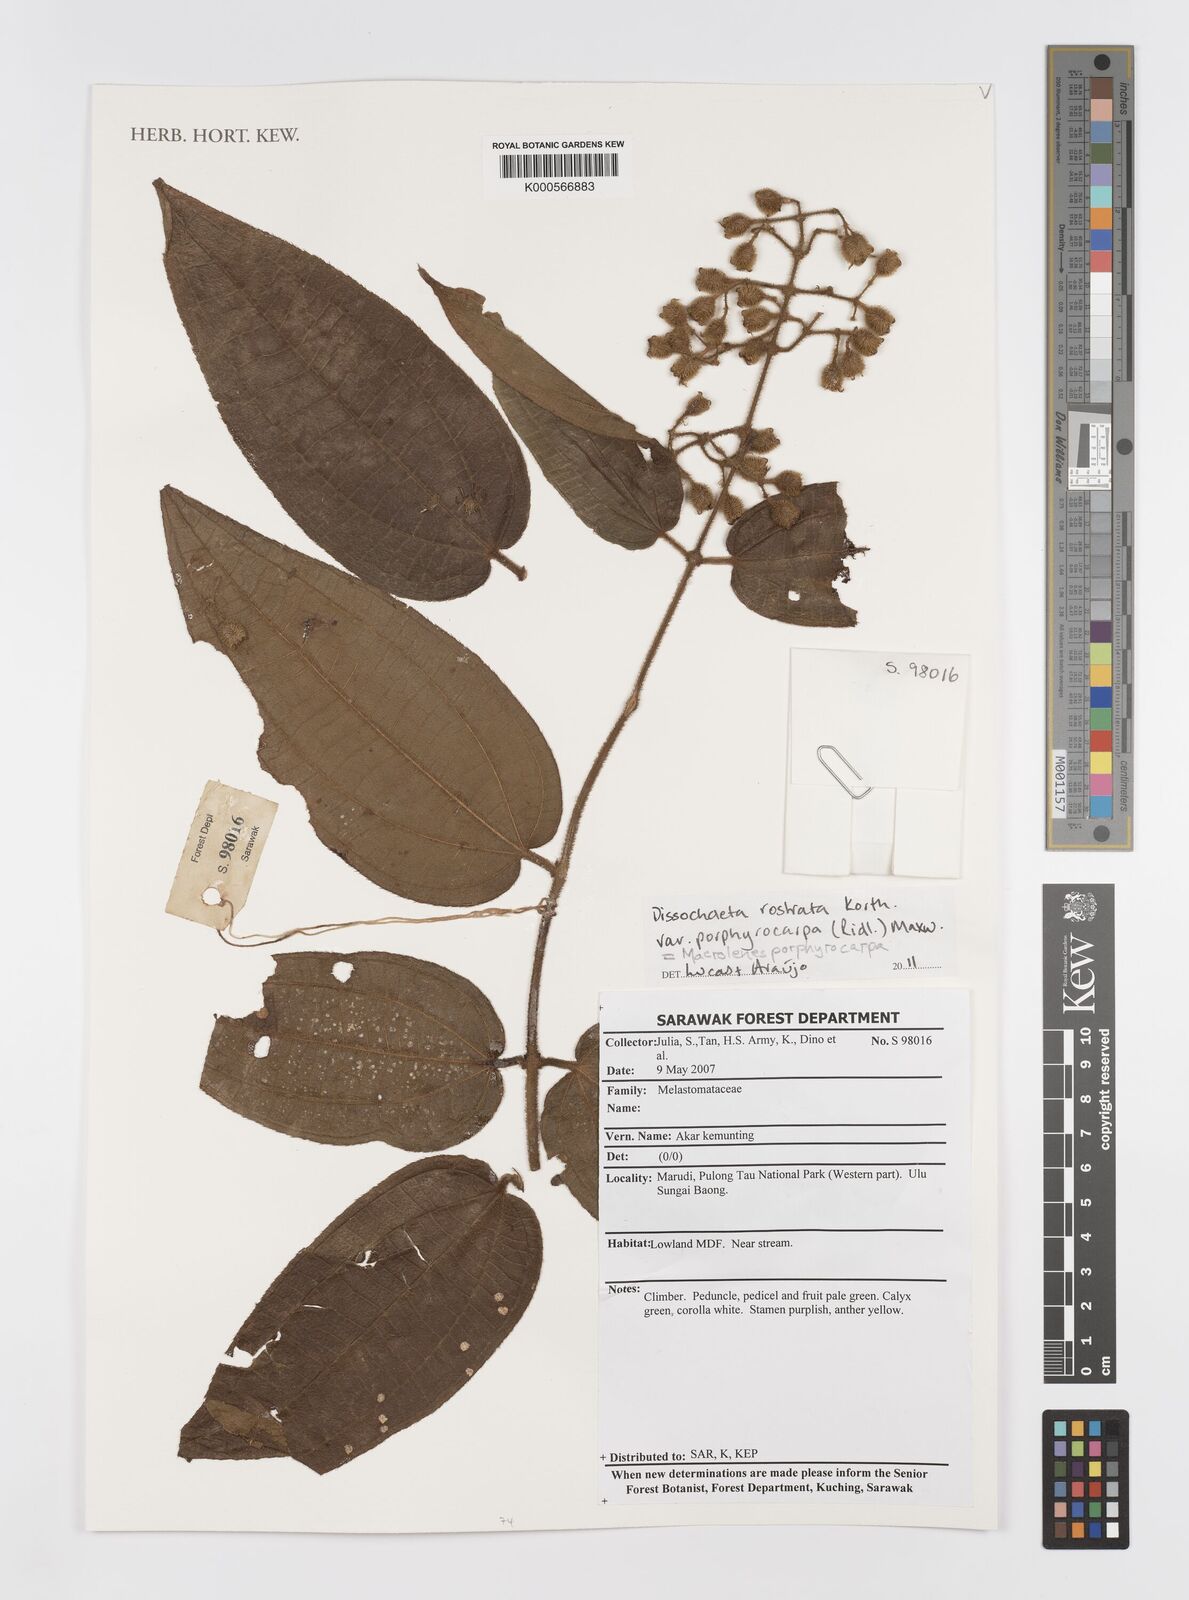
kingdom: Plantae
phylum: Tracheophyta
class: Magnoliopsida
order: Myrtales
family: Melastomataceae
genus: Macrolenes
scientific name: Macrolenes porphyrocarpa
